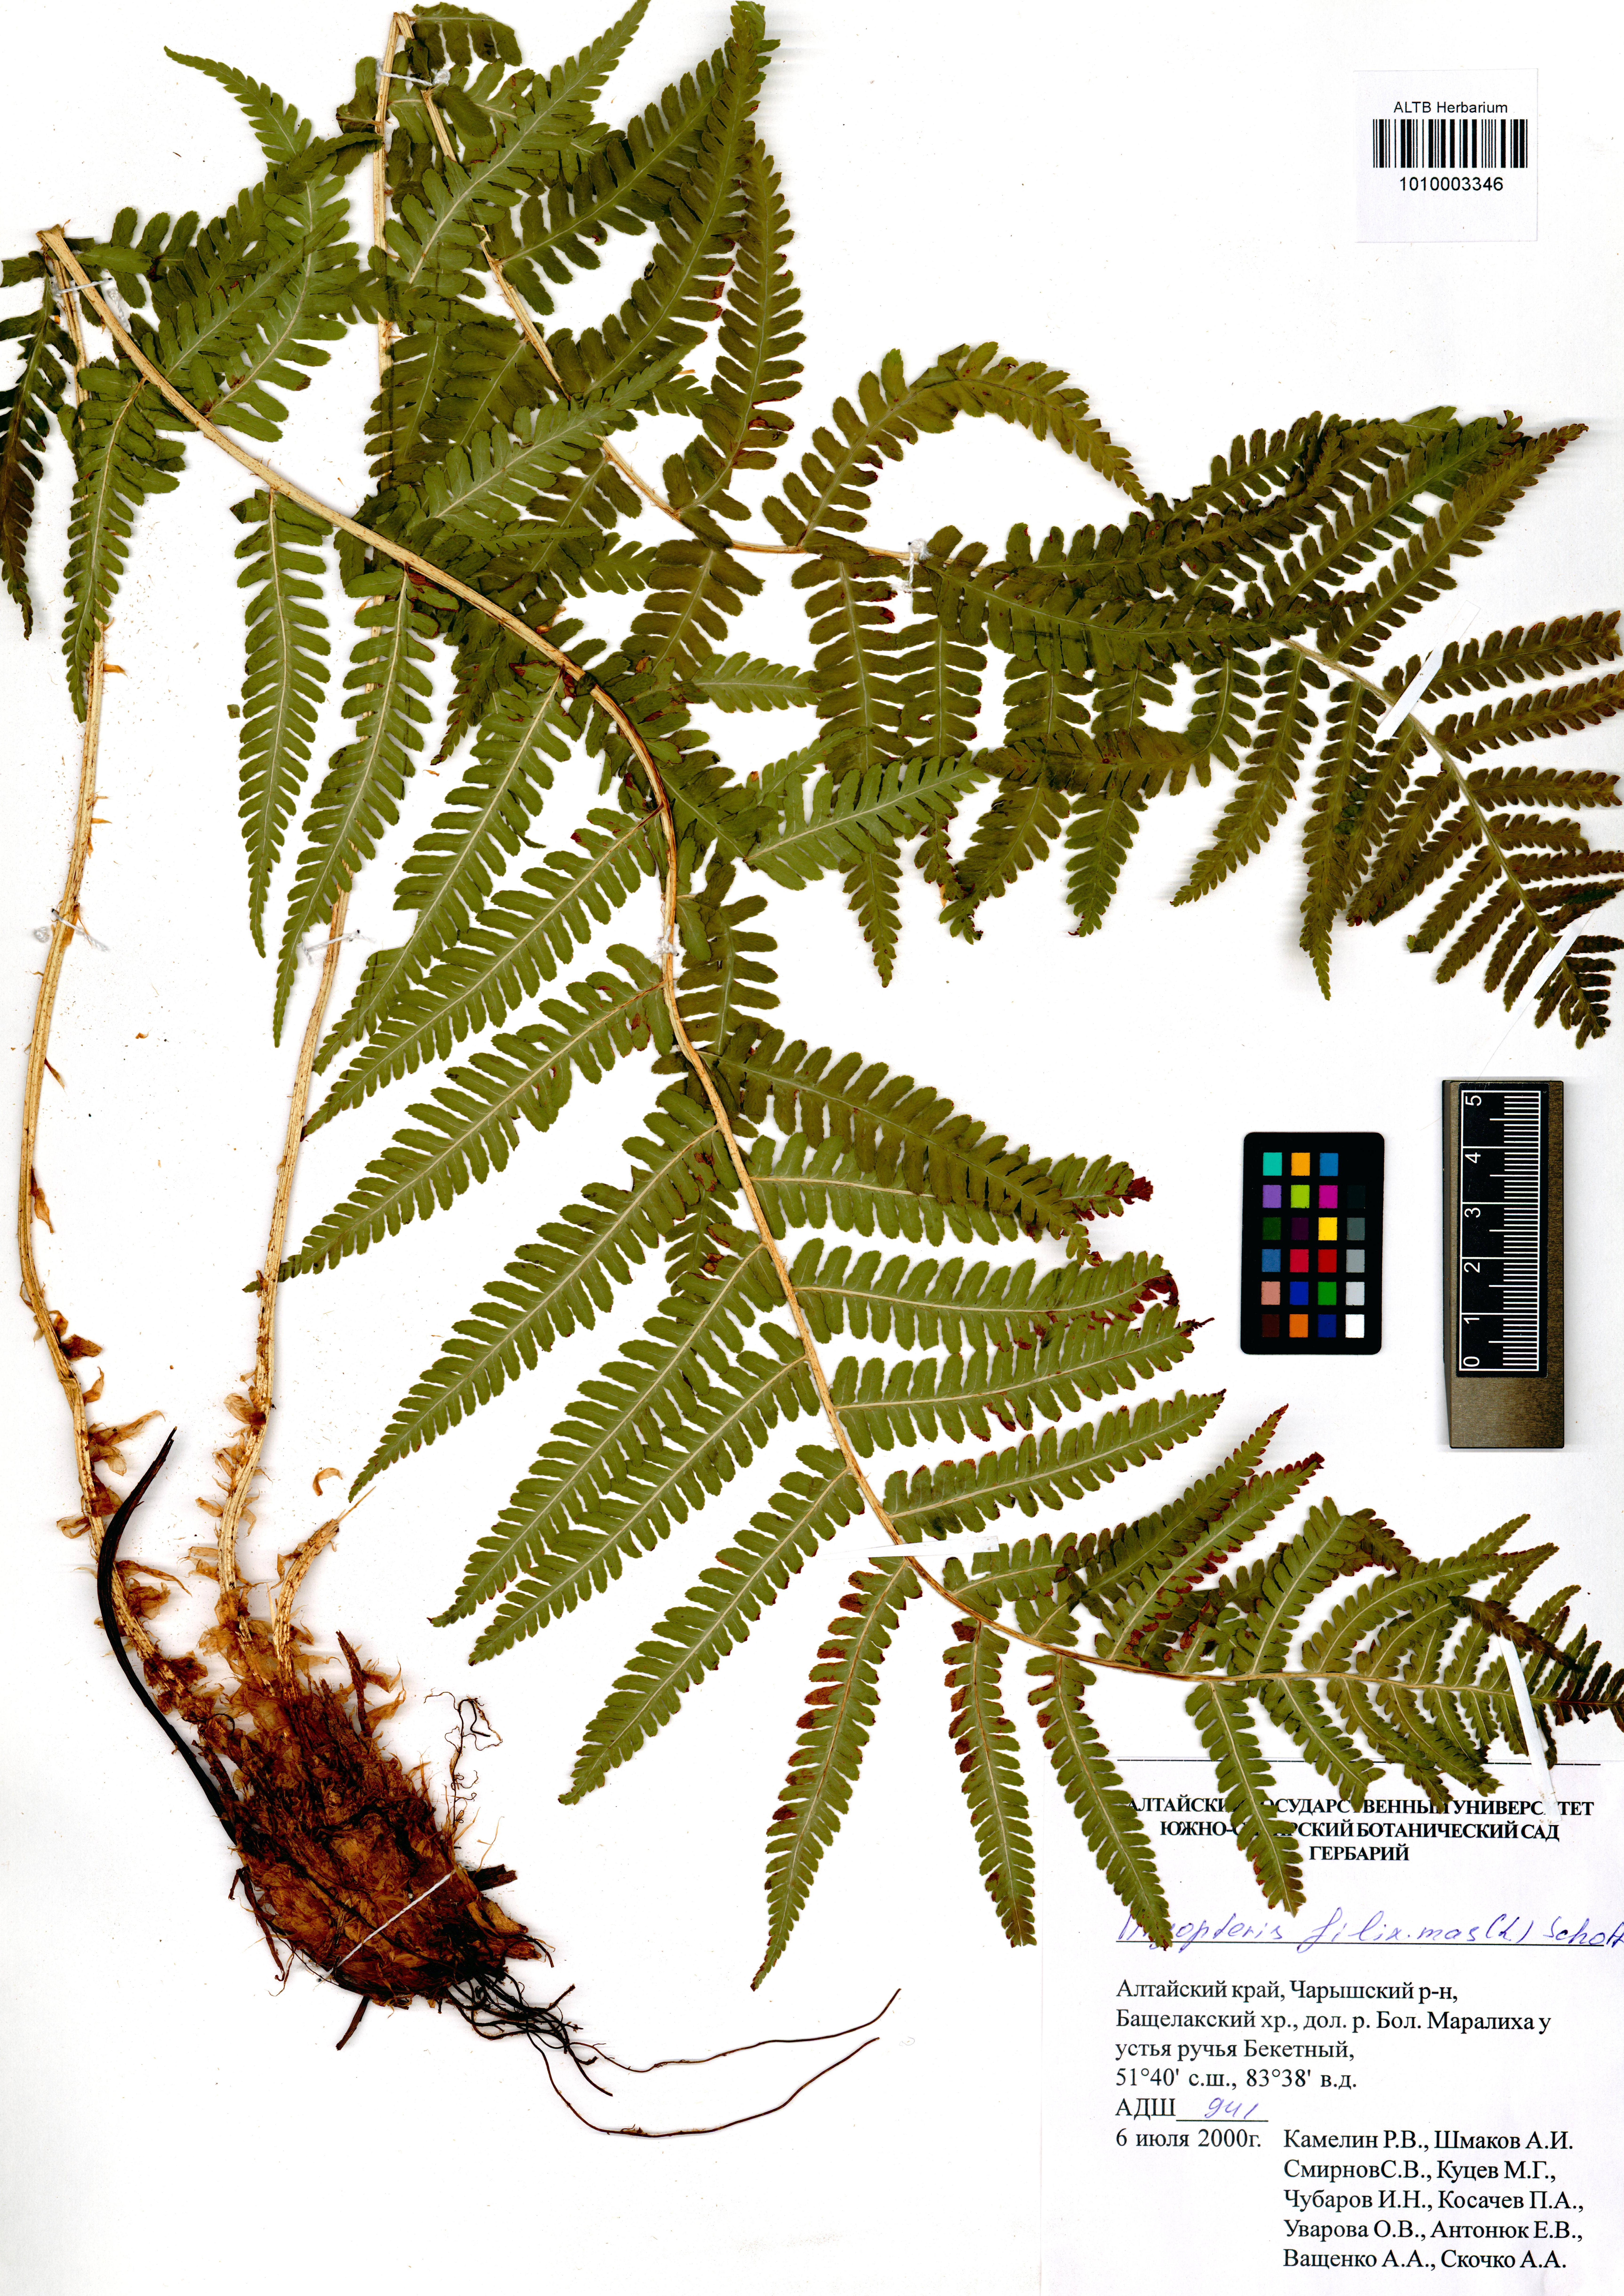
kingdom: Plantae
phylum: Tracheophyta
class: Polypodiopsida
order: Polypodiales
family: Dryopteridaceae
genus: Dryopteris
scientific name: Dryopteris filix-mas
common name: Male fern
